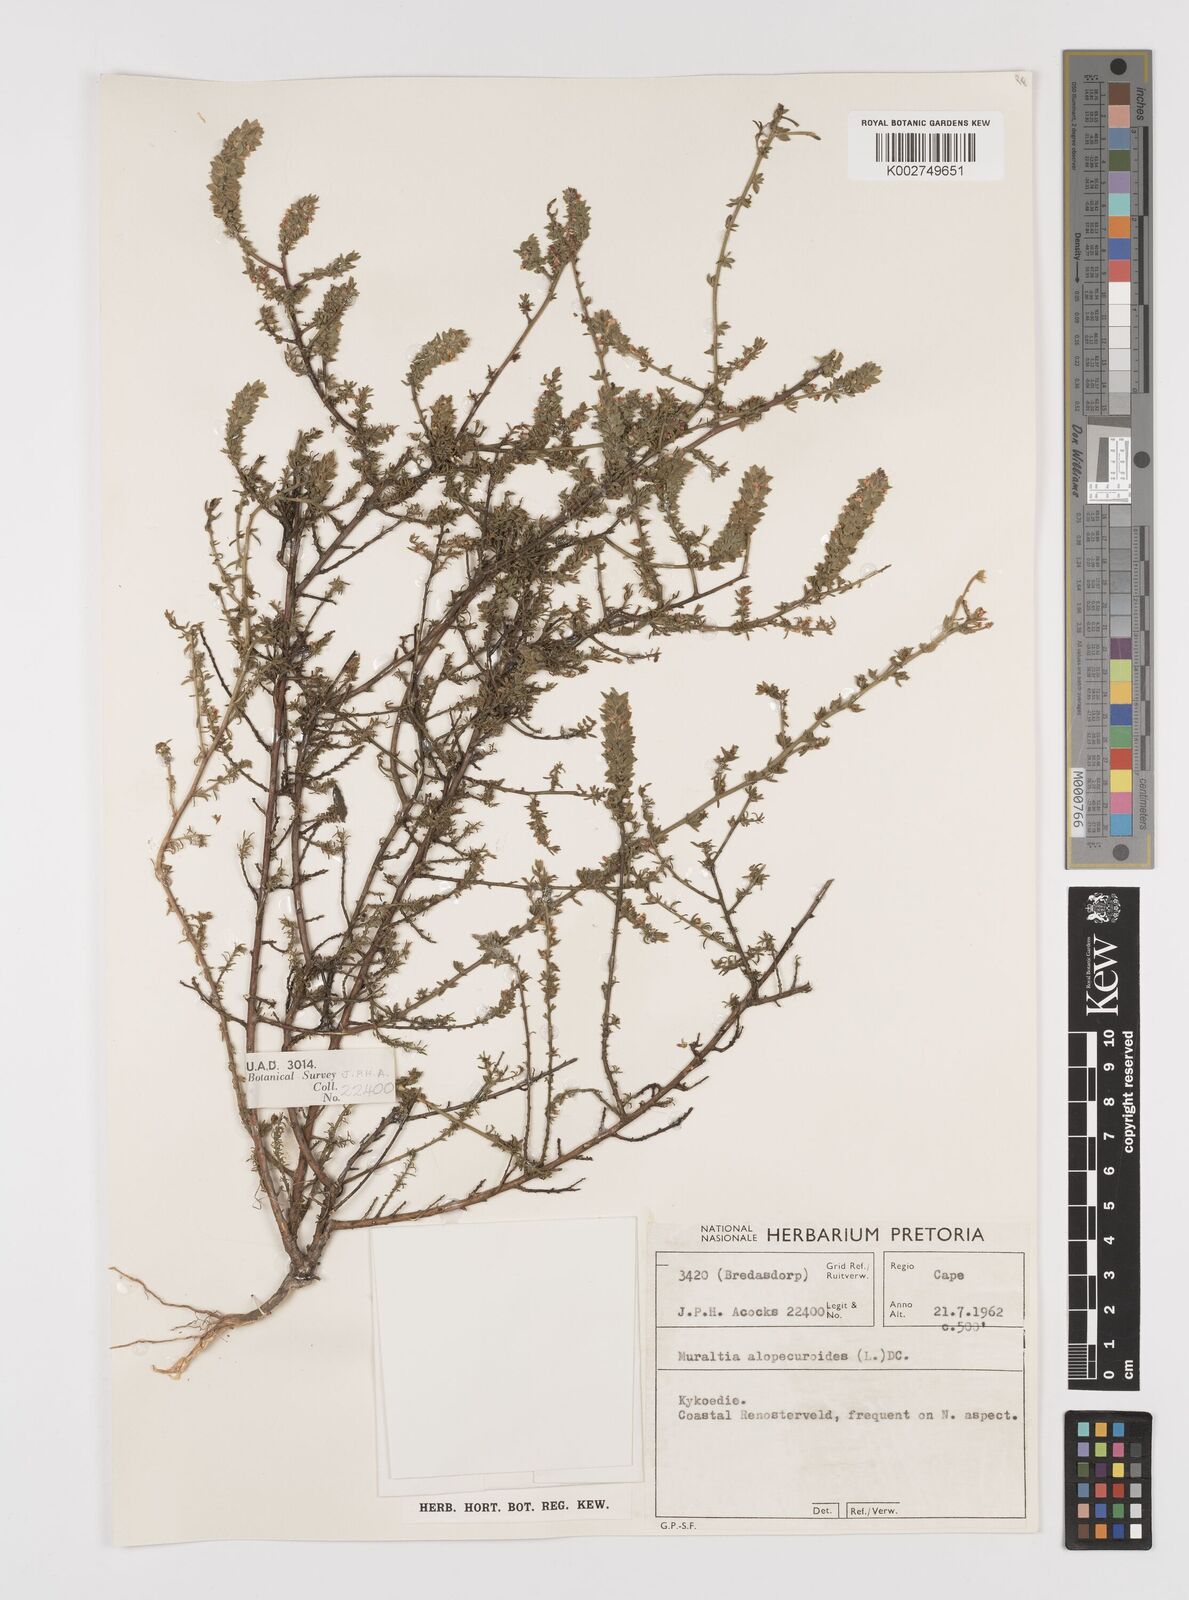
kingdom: Plantae
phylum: Tracheophyta
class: Magnoliopsida
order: Fabales
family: Polygalaceae
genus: Muraltia
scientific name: Muraltia alopecuroides
